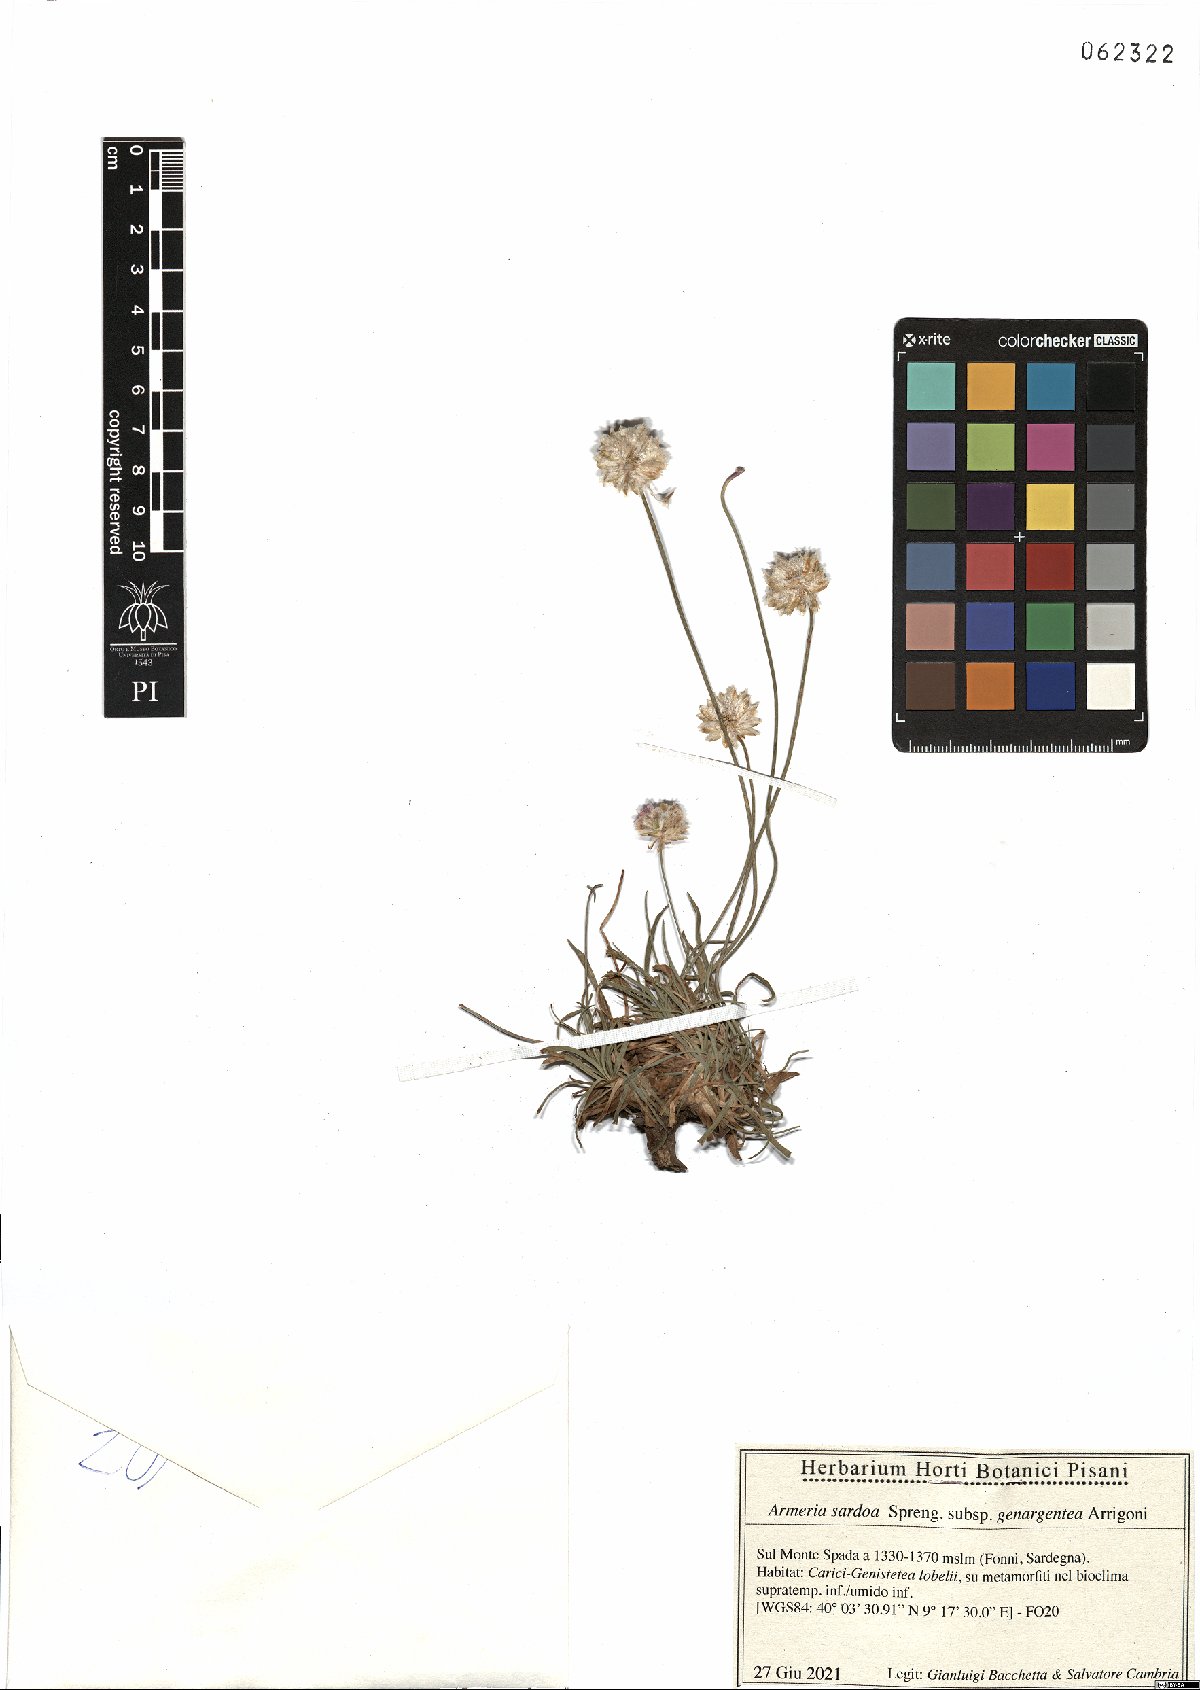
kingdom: Plantae
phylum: Tracheophyta
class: Magnoliopsida
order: Caryophyllales
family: Plumbaginaceae
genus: Armeria
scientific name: Armeria sardoa
